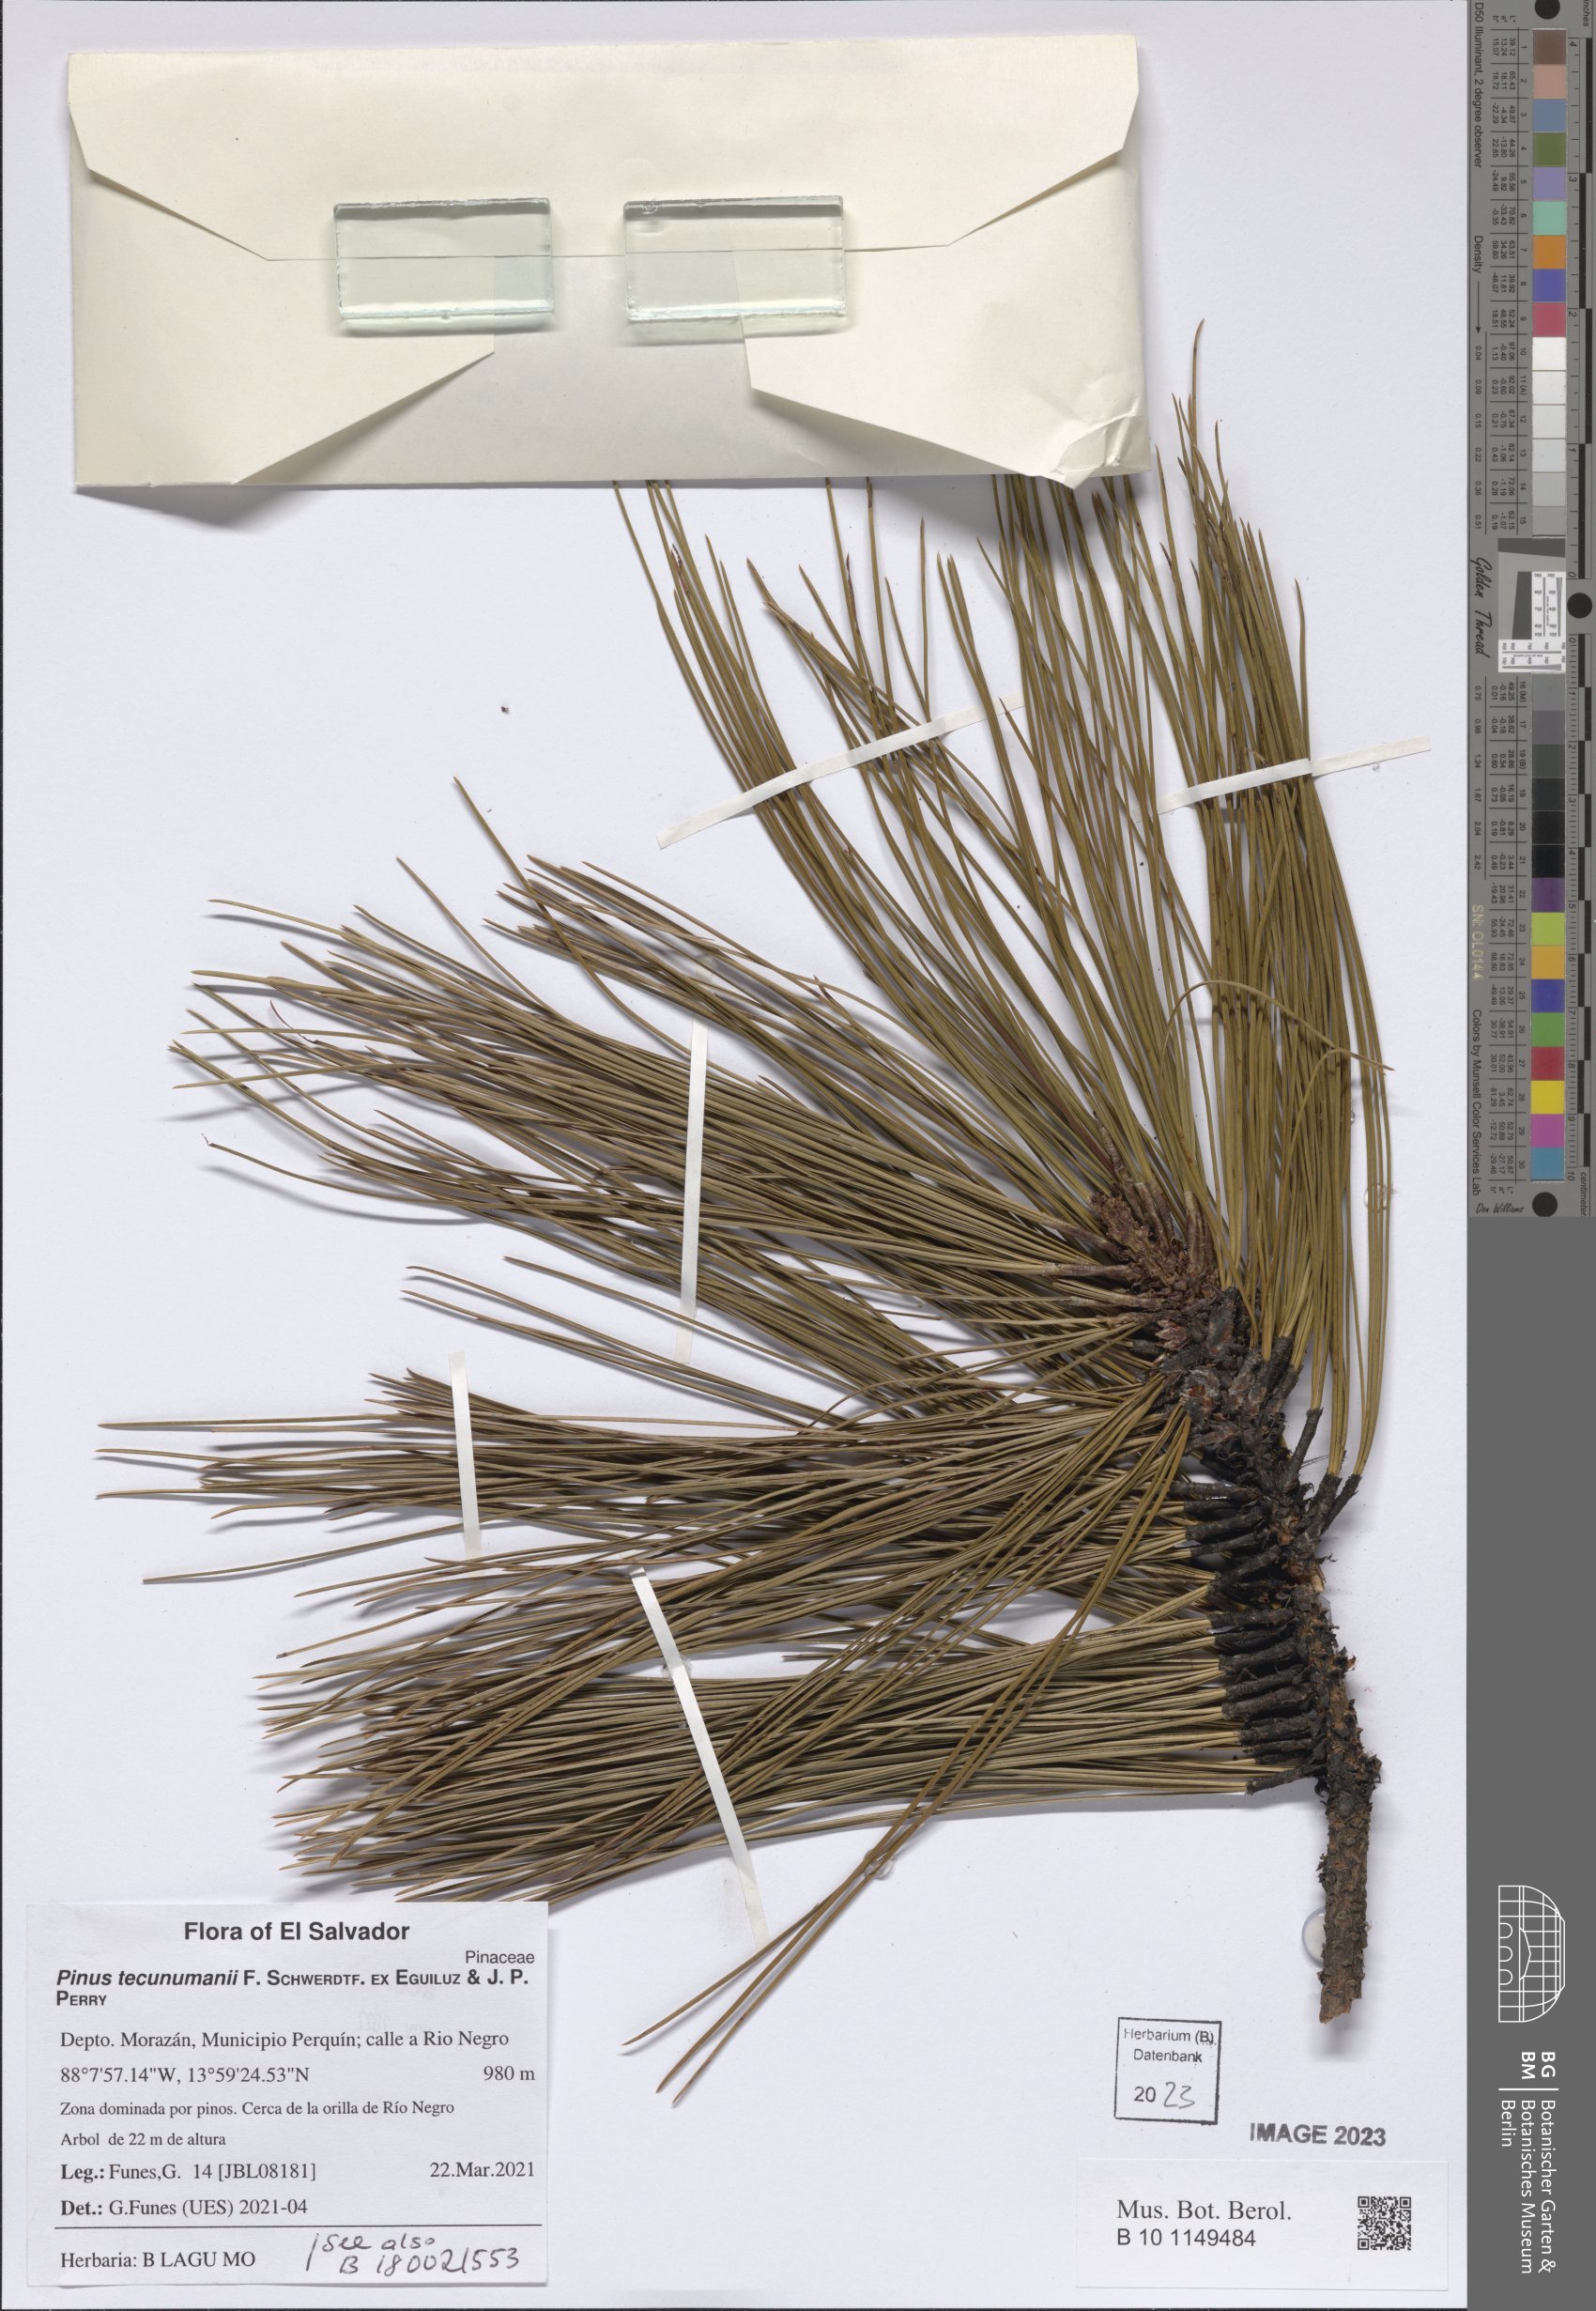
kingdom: Plantae
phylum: Tracheophyta
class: Pinopsida
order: Pinales
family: Pinaceae
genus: Pinus
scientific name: Pinus tecunumanii
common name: Schwerdtfeger's pine
